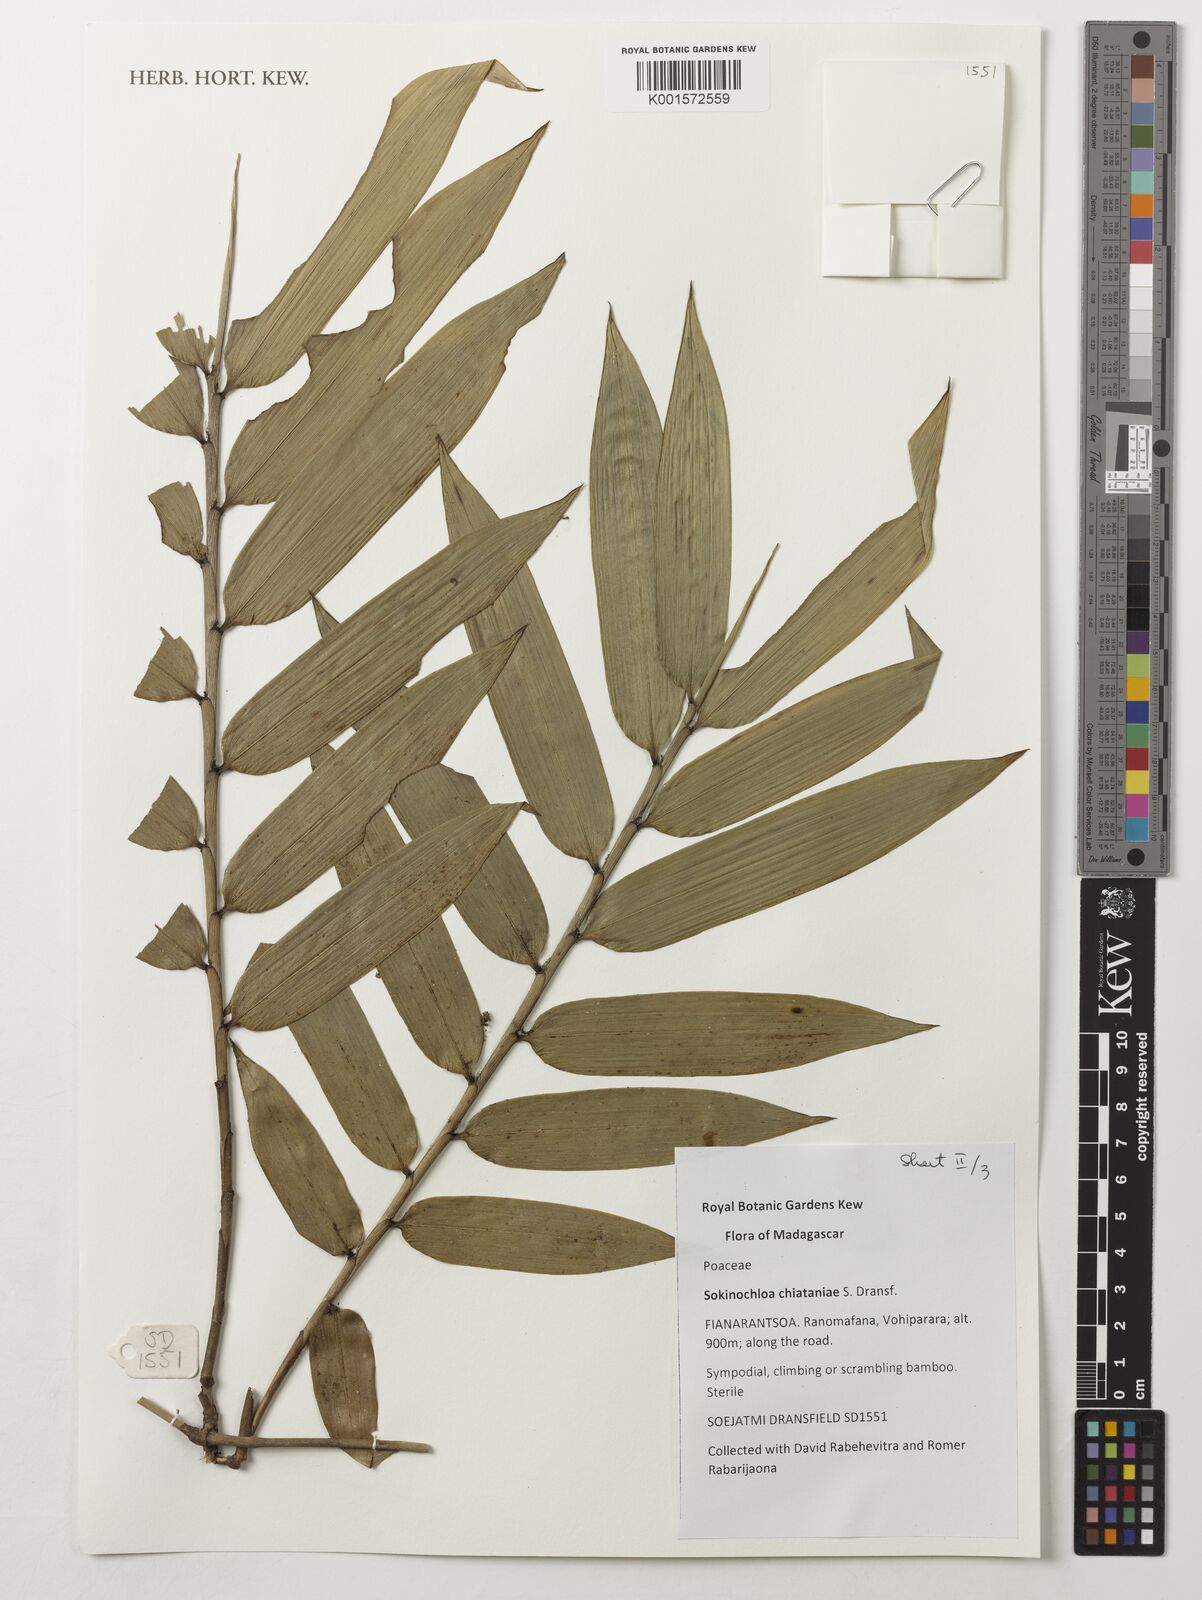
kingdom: Plantae
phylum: Tracheophyta
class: Liliopsida
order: Poales
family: Poaceae
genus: Sokinochloa
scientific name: Sokinochloa chiataniae
